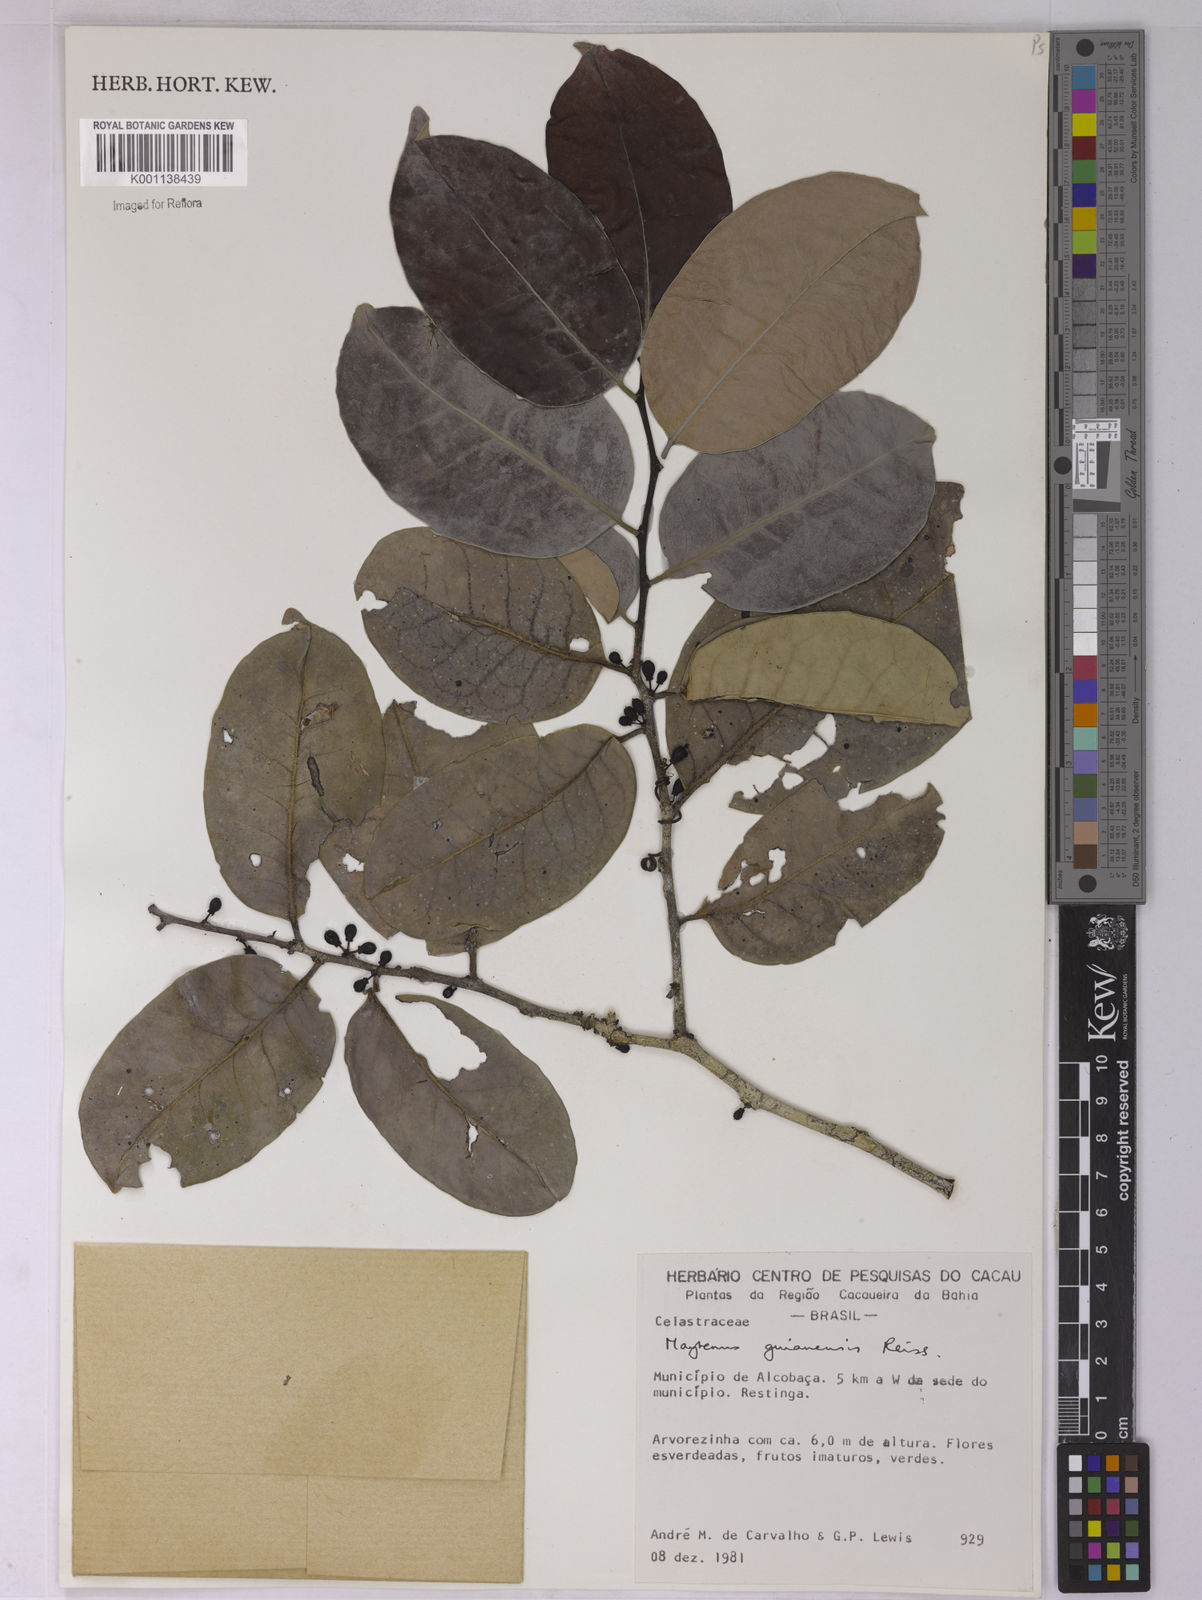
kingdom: Plantae
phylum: Tracheophyta
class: Magnoliopsida
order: Celastrales
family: Celastraceae
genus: Monteverdia
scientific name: Monteverdia guyanensis
